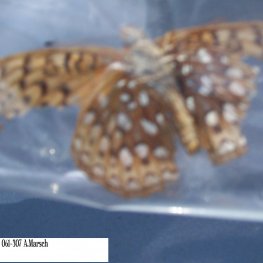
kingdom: Animalia
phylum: Arthropoda
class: Insecta
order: Lepidoptera
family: Nymphalidae
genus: Speyeria
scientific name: Speyeria atlantis
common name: Atlantis Fritillary
